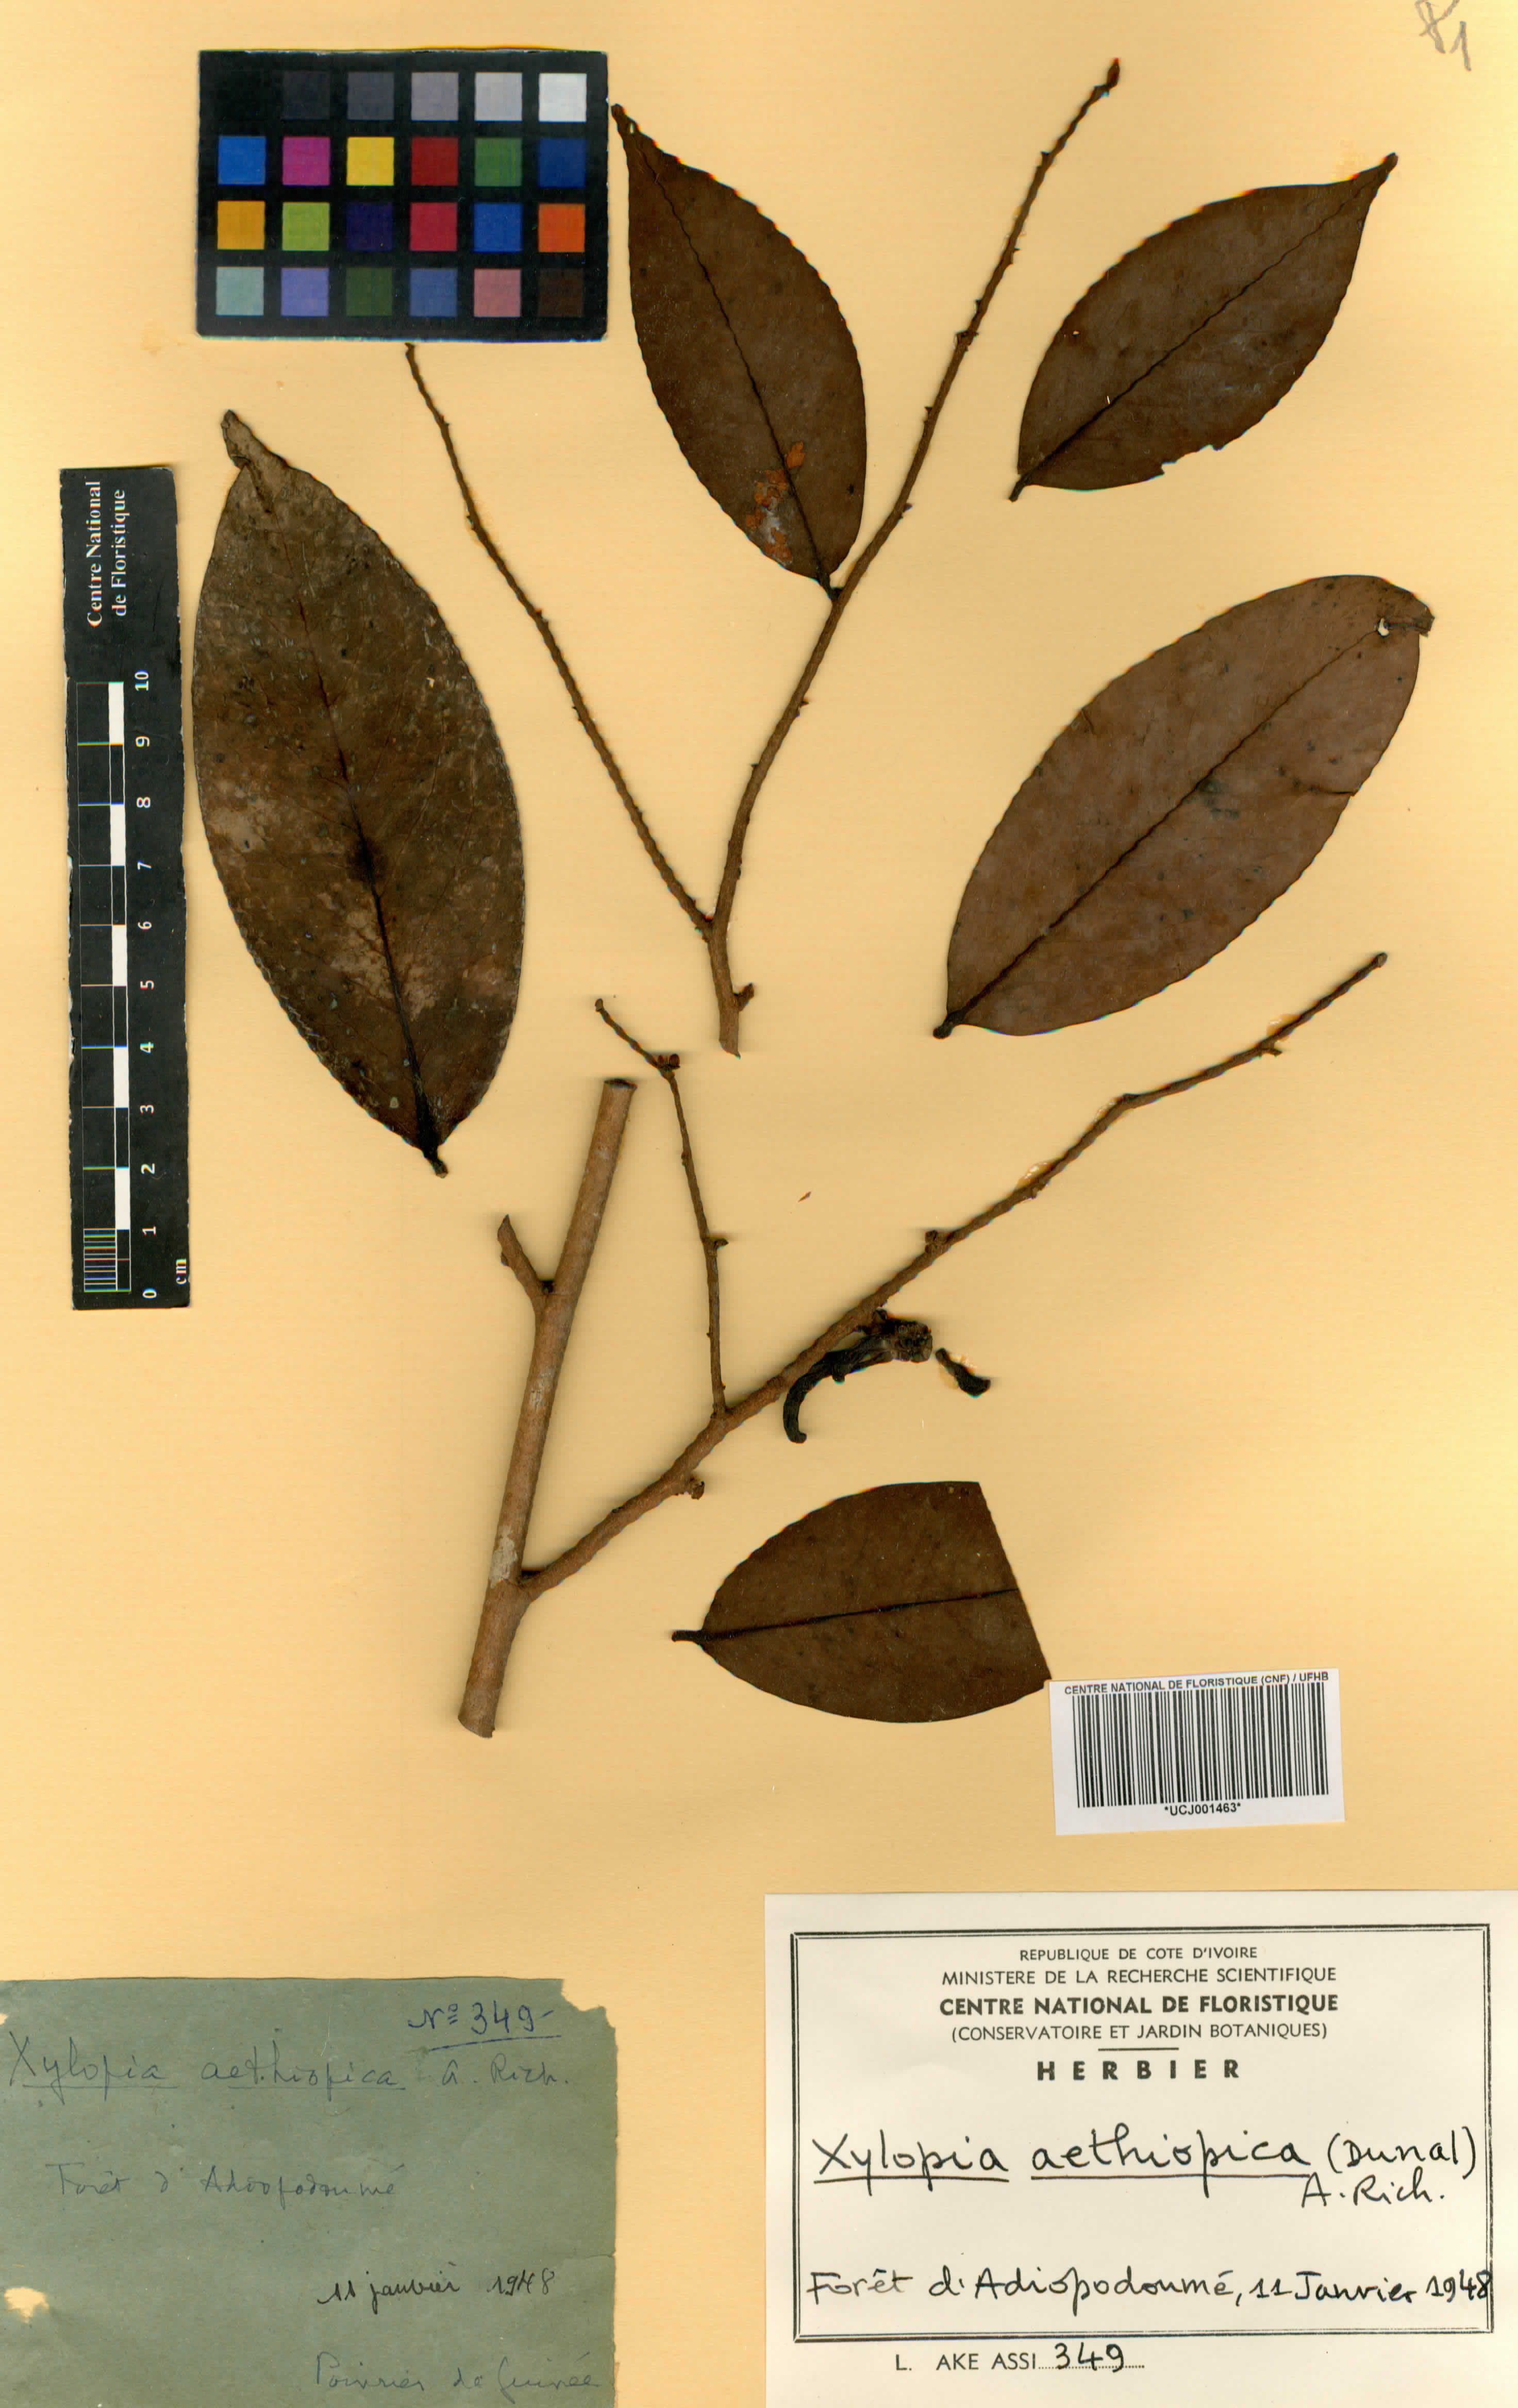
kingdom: Plantae
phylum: Tracheophyta
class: Magnoliopsida
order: Magnoliales
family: Annonaceae
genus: Xylopia
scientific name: Xylopia aethiopica
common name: Ethiopian-pepper
